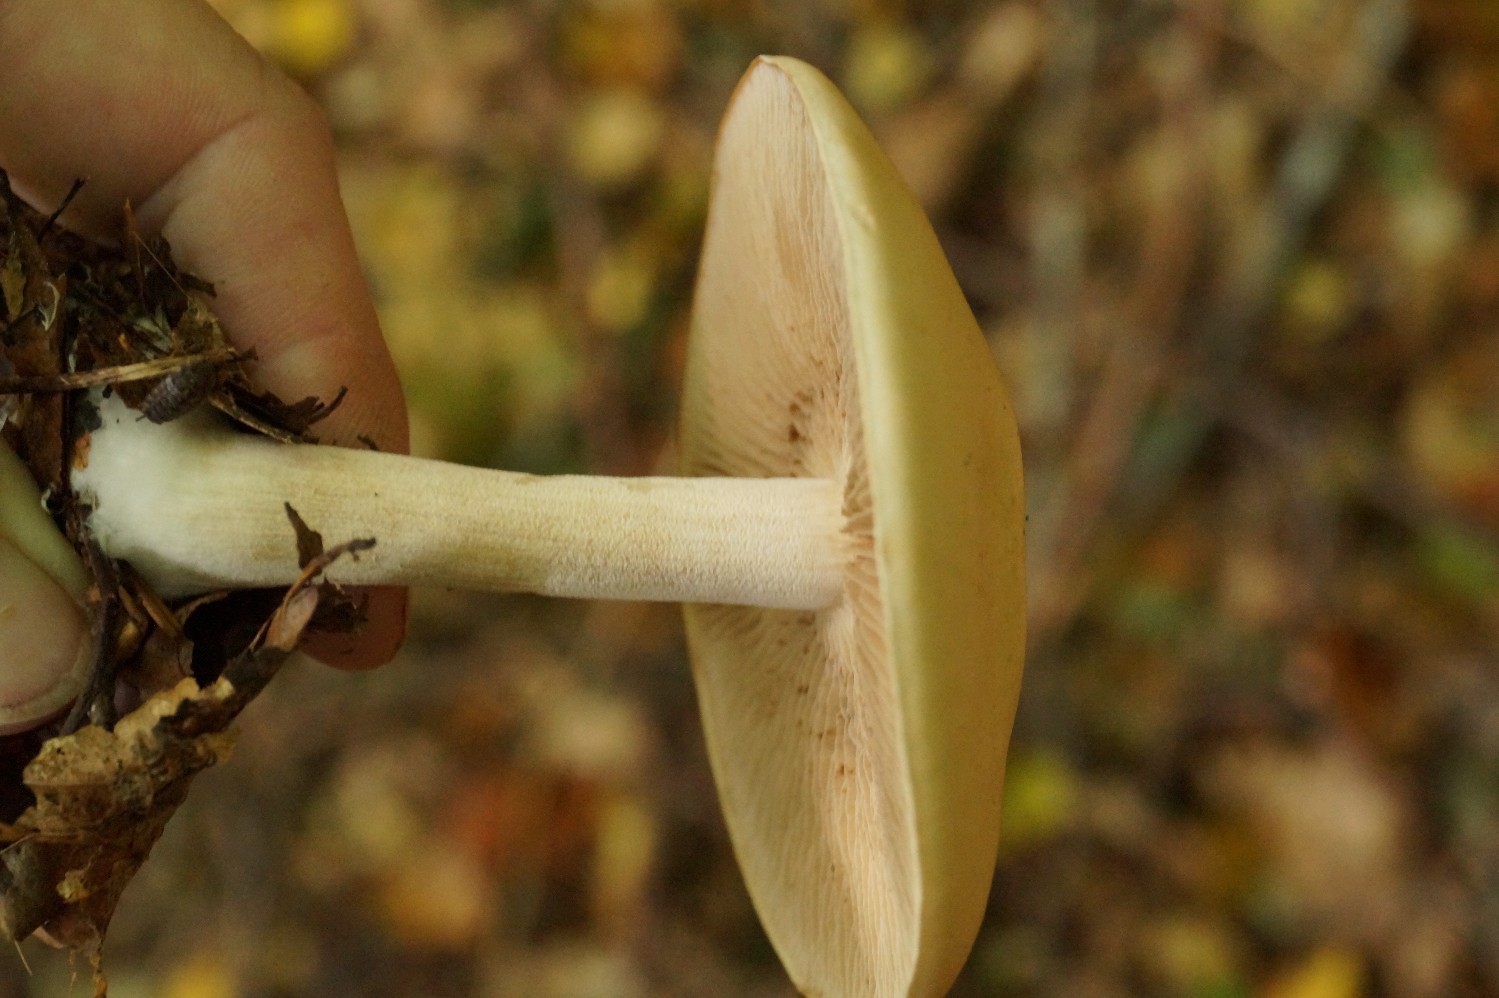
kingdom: Fungi
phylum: Basidiomycota
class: Agaricomycetes
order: Agaricales
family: Hymenogastraceae
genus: Hebeloma
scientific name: Hebeloma
